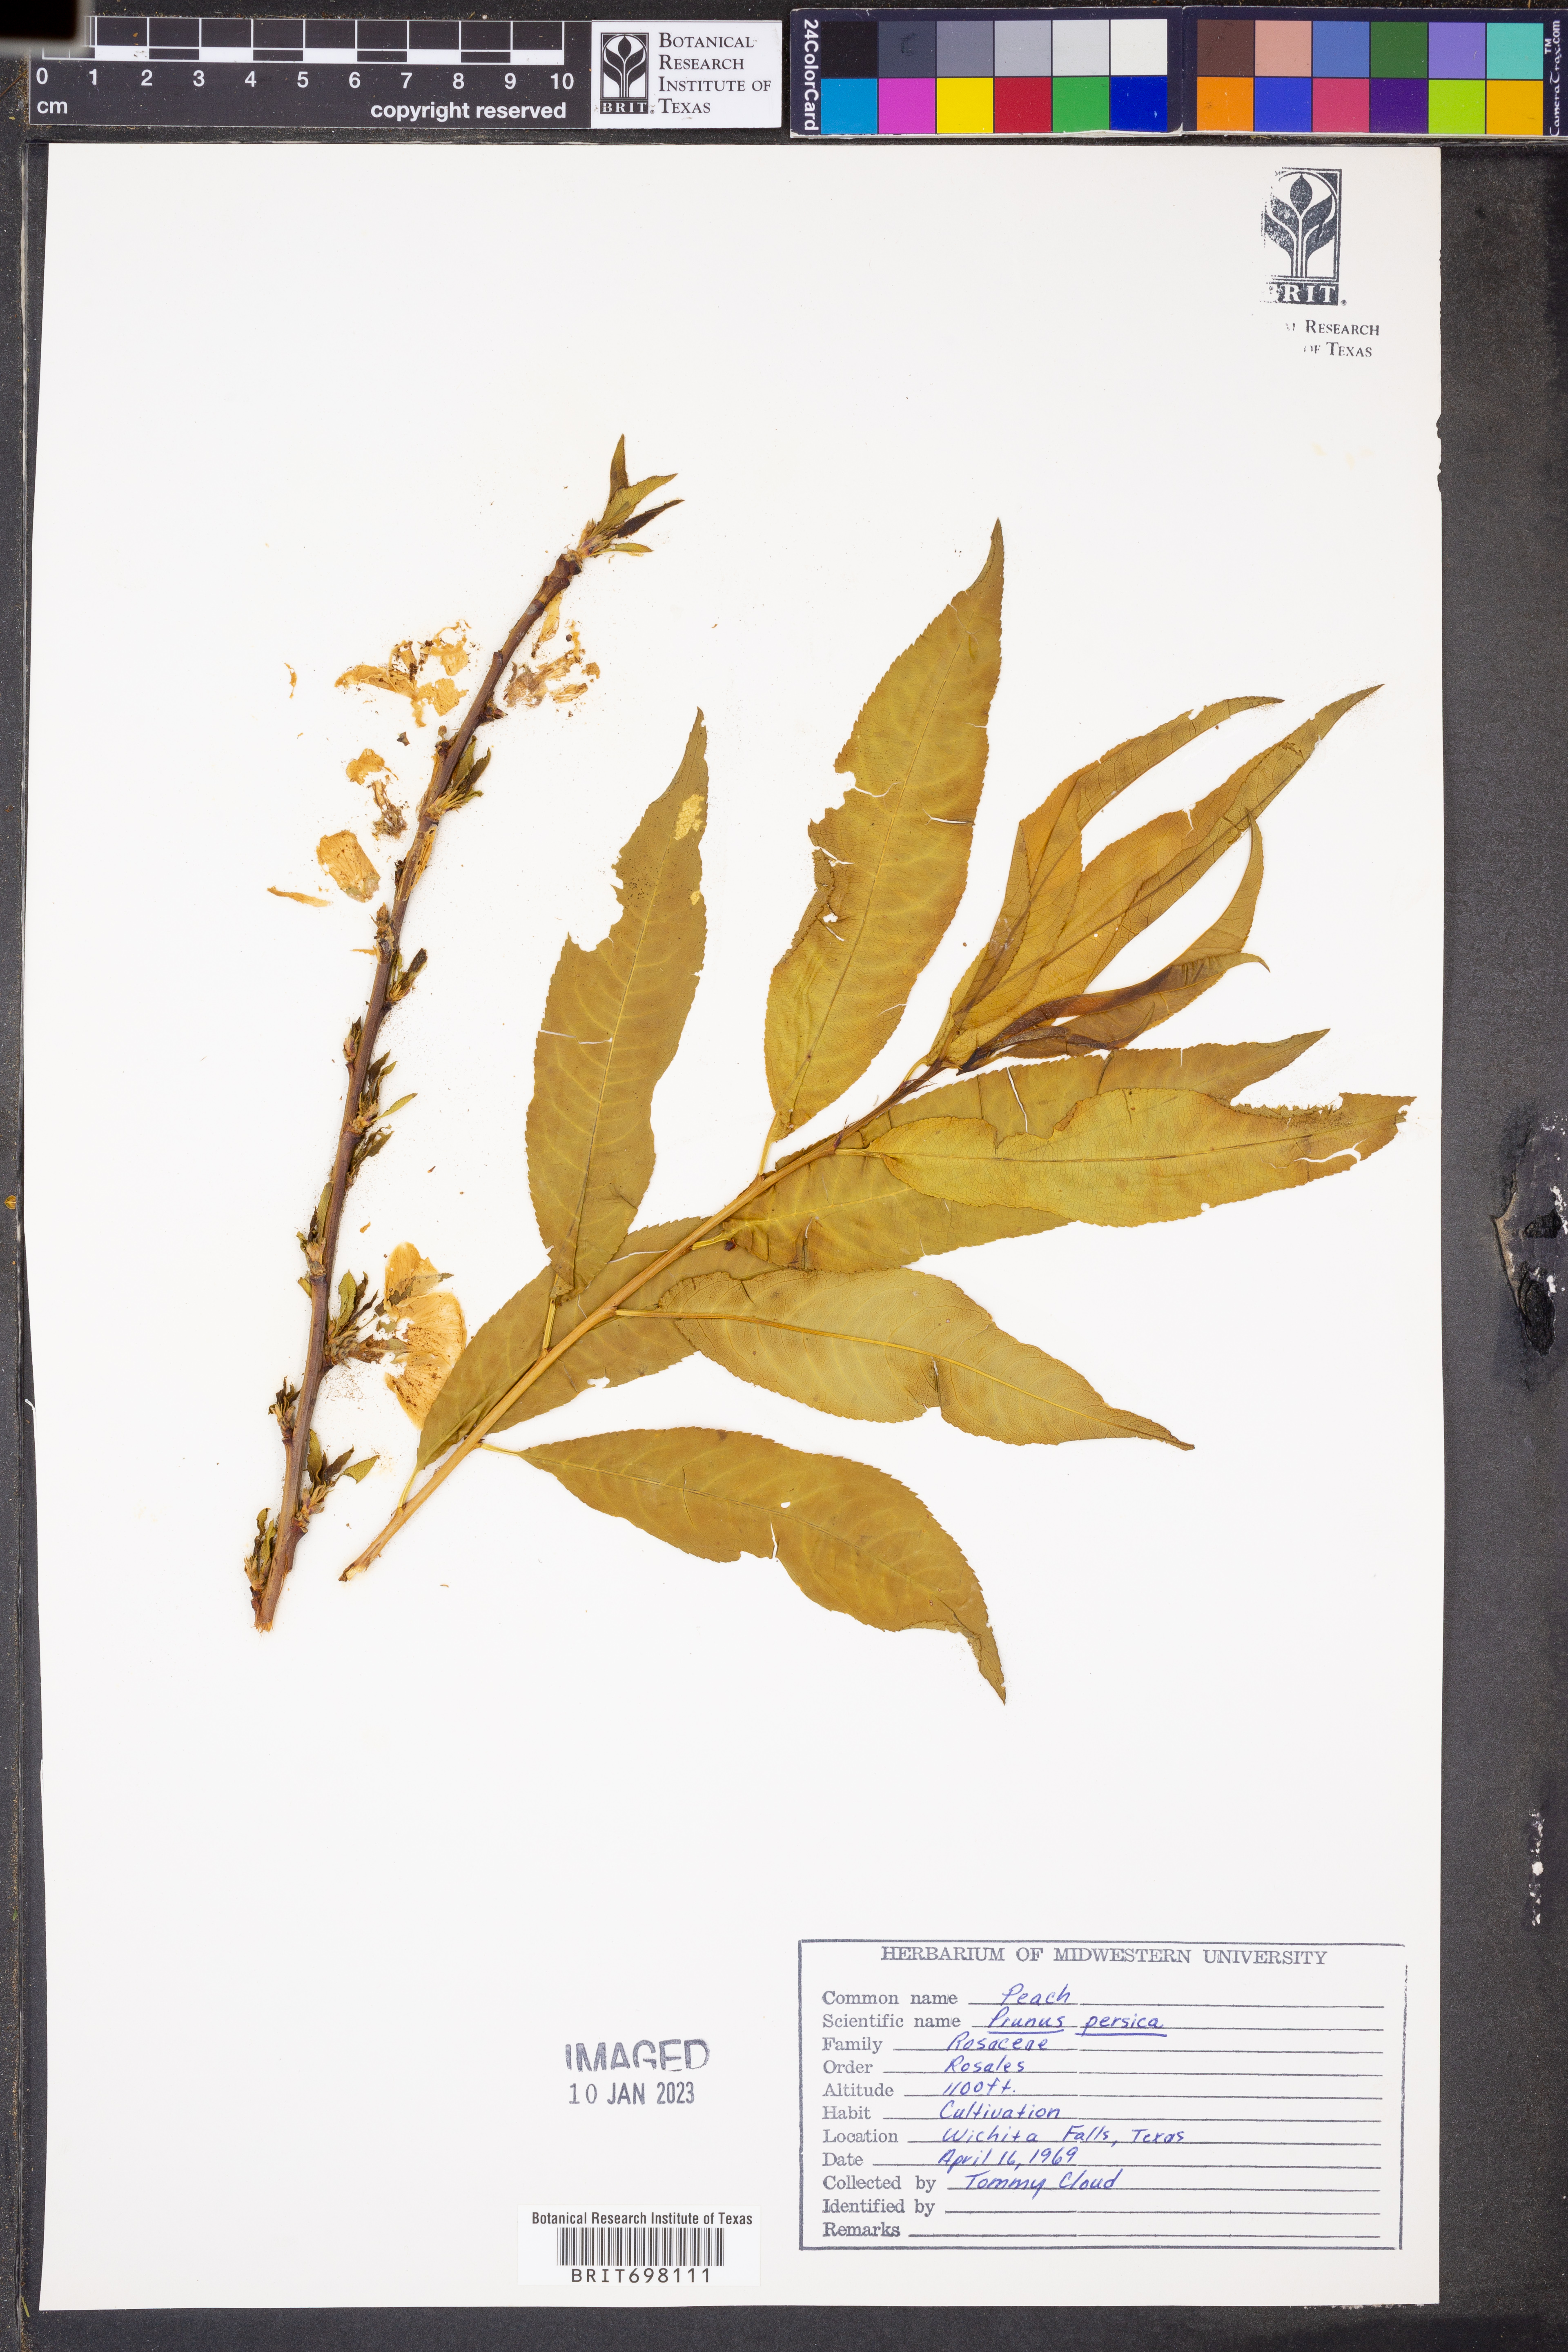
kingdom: Plantae
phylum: Tracheophyta
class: Magnoliopsida
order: Rosales
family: Rosaceae
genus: Prunus
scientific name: Prunus persica
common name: Peach
